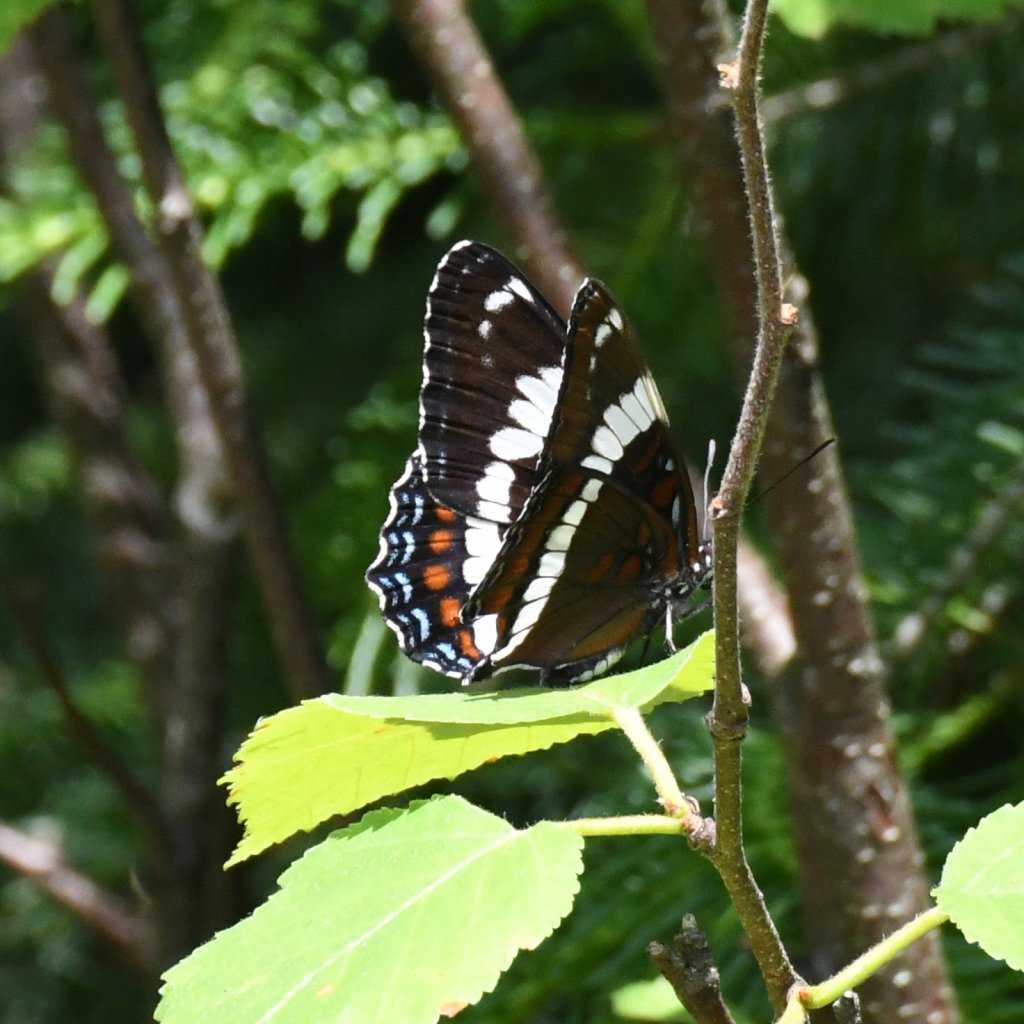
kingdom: Animalia
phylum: Arthropoda
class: Insecta
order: Lepidoptera
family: Nymphalidae
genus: Limenitis
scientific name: Limenitis arthemis
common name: Red-spotted Admiral
